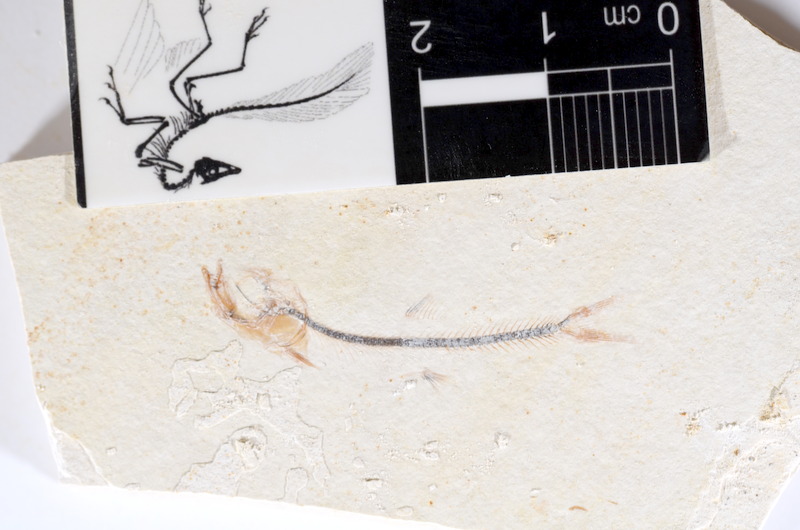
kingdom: Animalia
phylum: Chordata
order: Salmoniformes
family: Orthogonikleithridae
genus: Orthogonikleithrus
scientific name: Orthogonikleithrus hoelli
